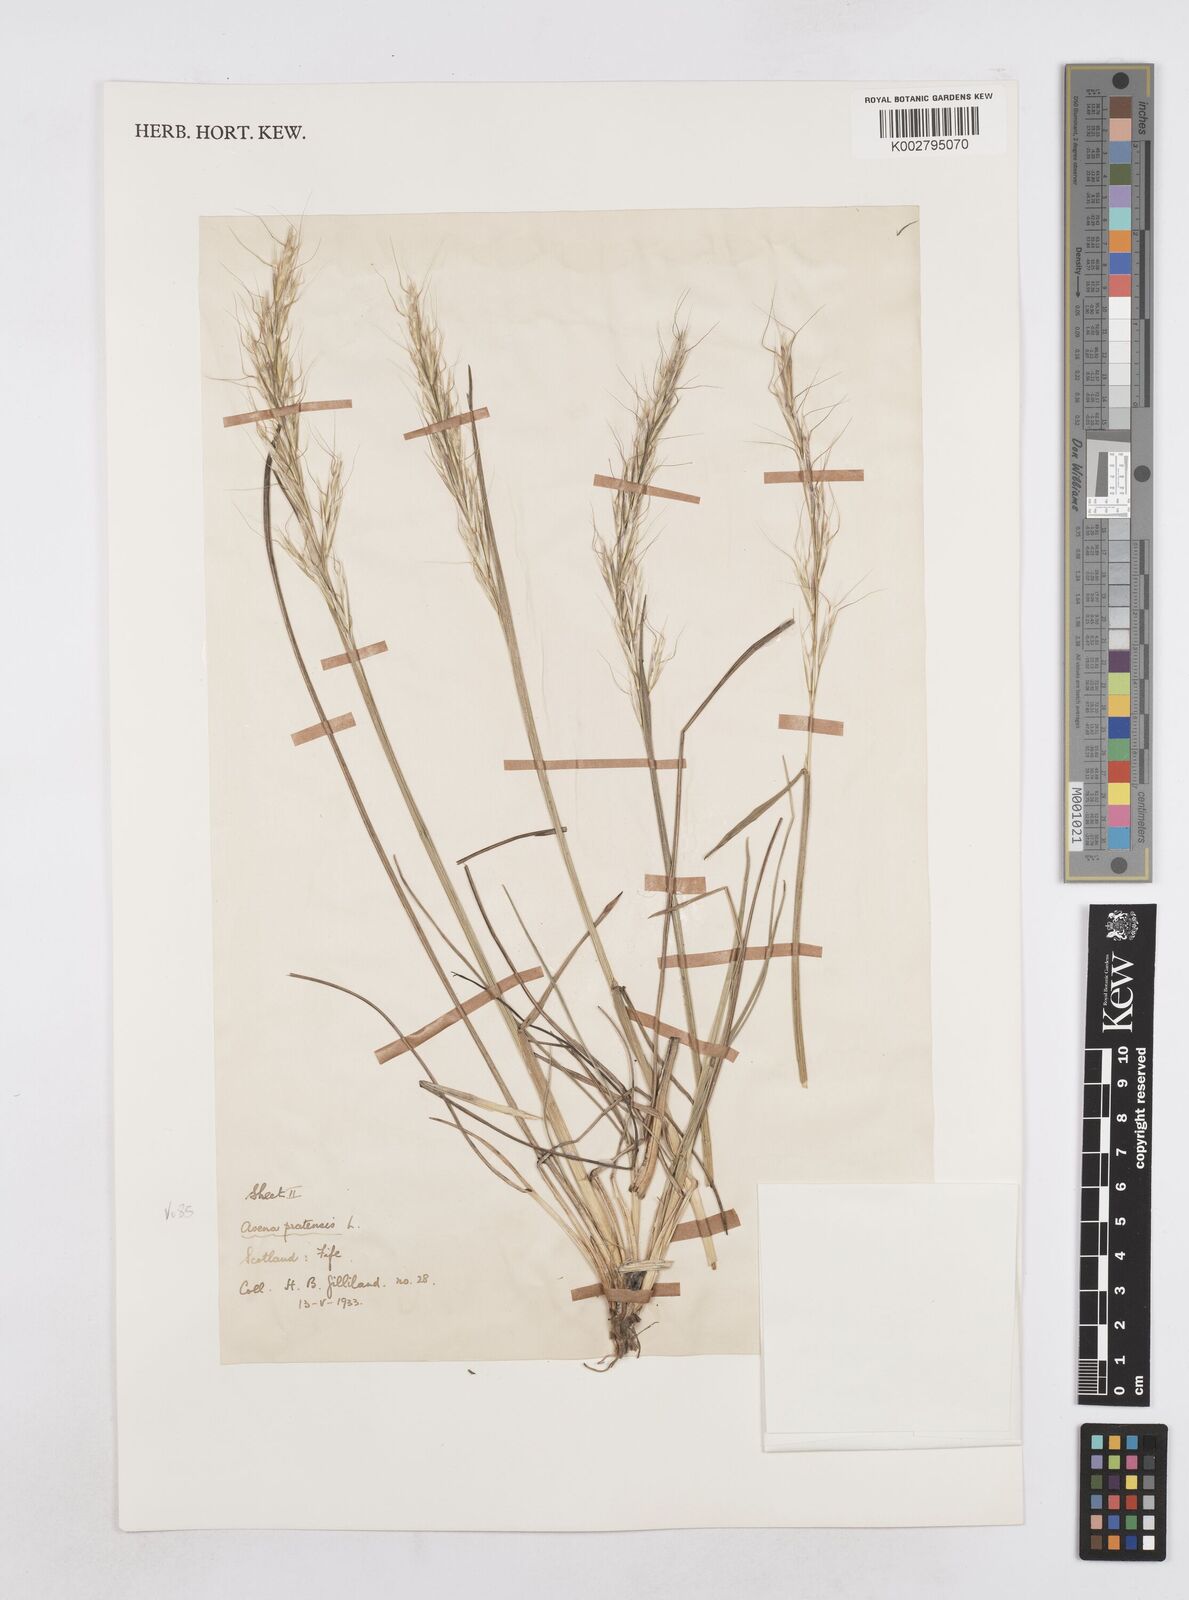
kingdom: Plantae
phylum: Tracheophyta
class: Liliopsida
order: Poales
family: Poaceae
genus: Helictotrichon
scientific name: Helictotrichon
